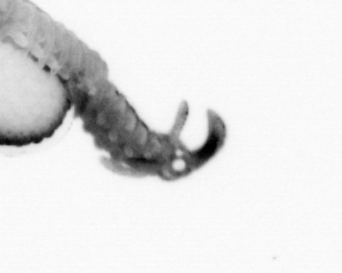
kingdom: Animalia
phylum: Annelida
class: Polychaeta
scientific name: Polychaeta
